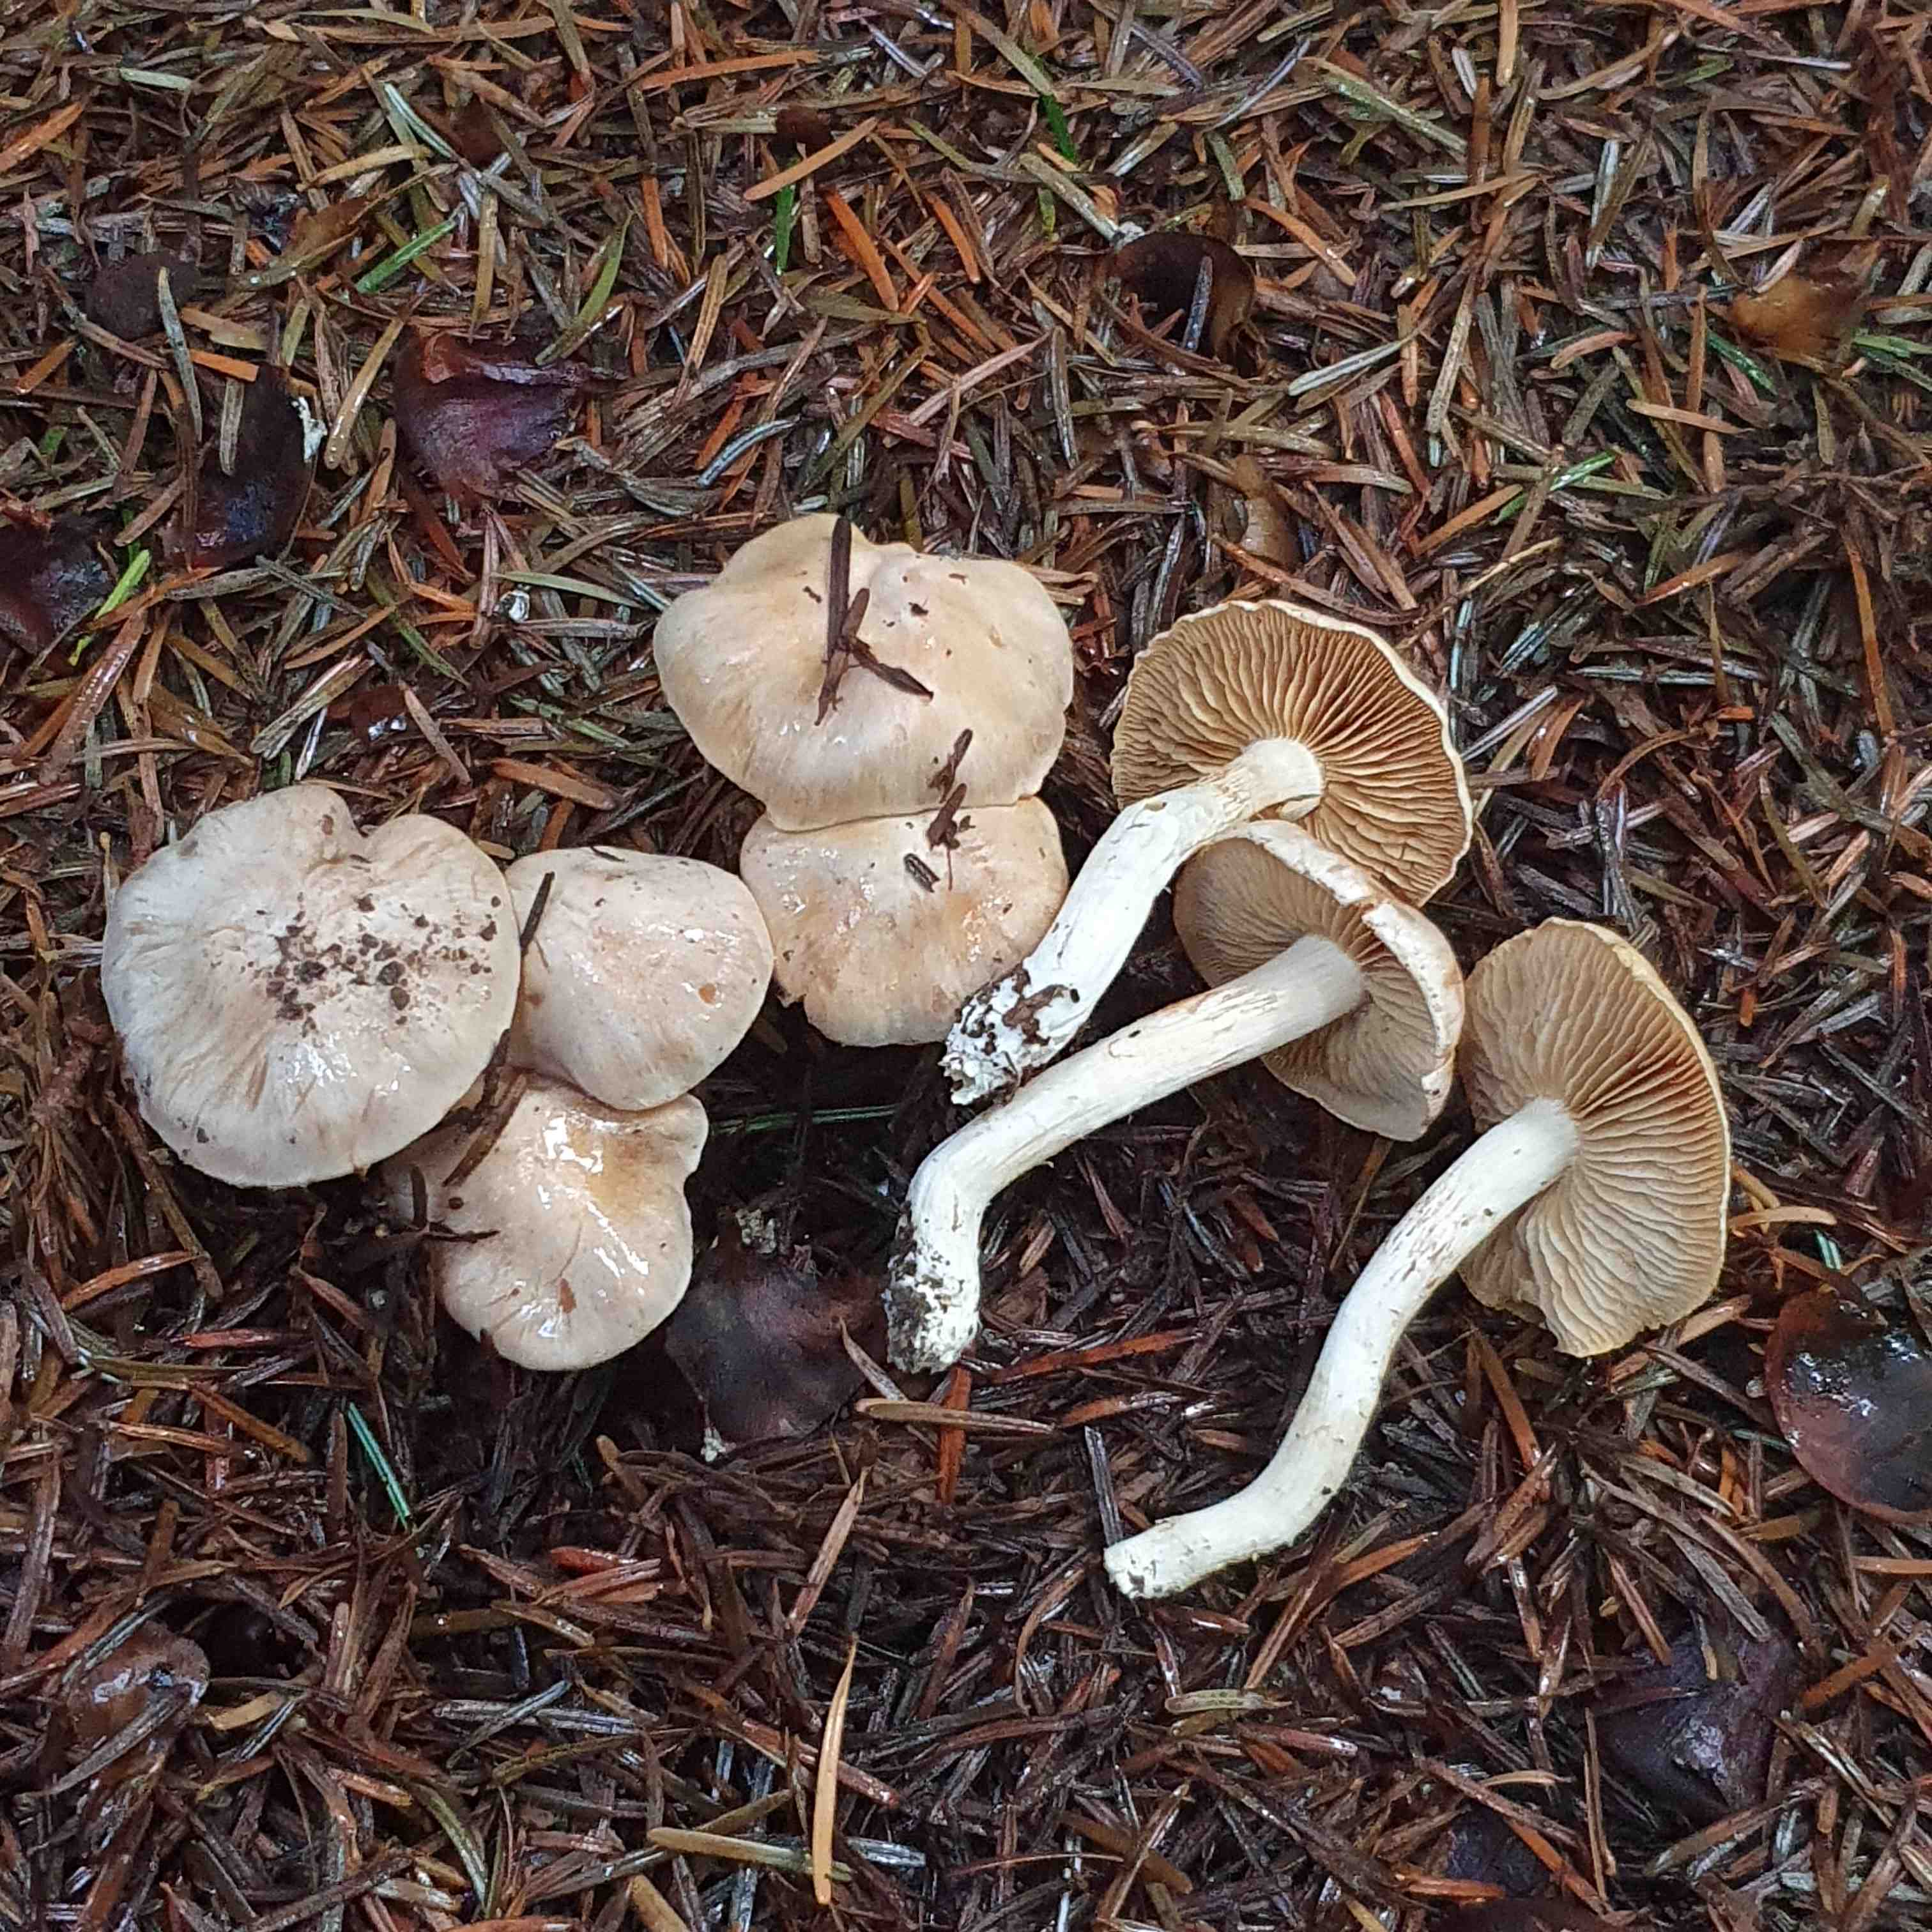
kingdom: Fungi
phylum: Basidiomycota
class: Agaricomycetes
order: Agaricales
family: Cortinariaceae
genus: Thaxterogaster
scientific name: Thaxterogaster leucoluteolus
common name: isabella slørhat
